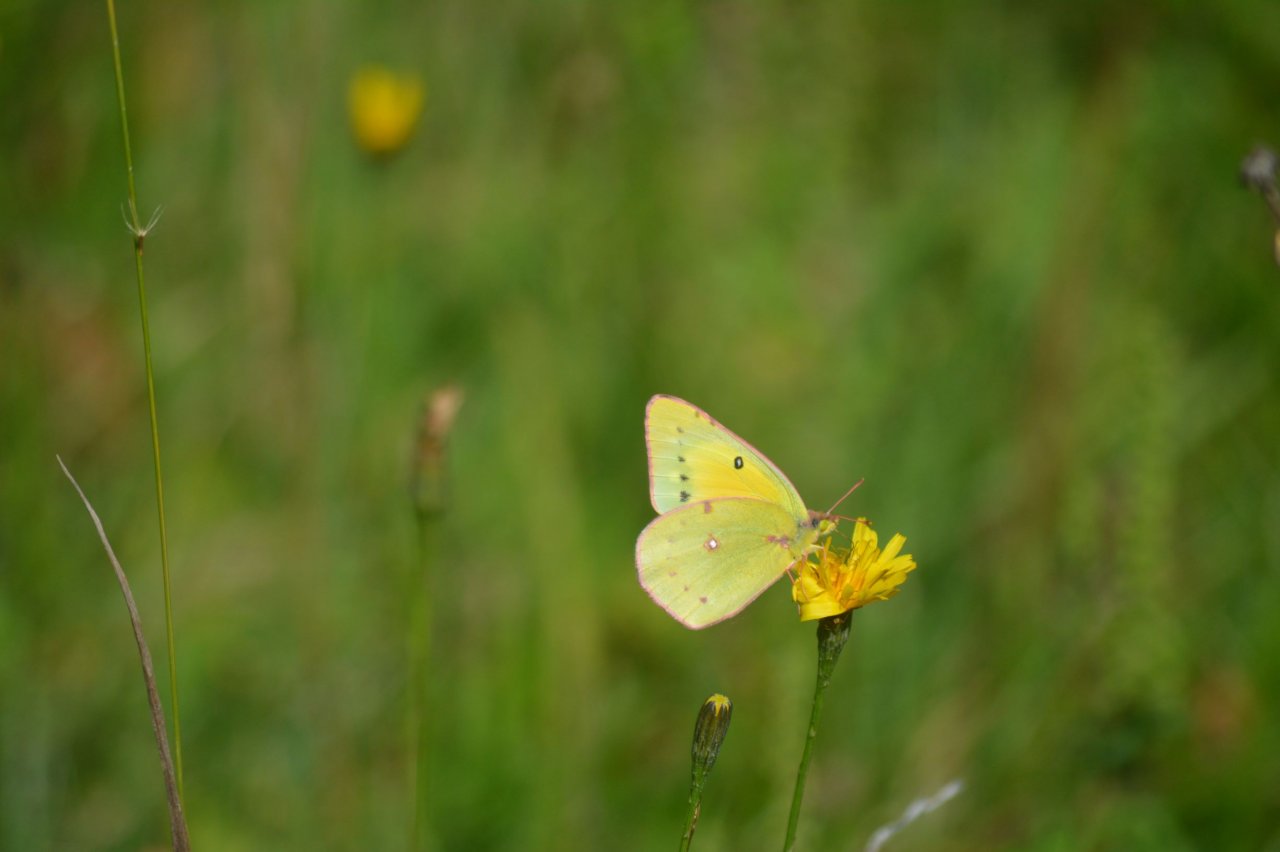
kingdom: Animalia
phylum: Arthropoda
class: Insecta
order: Lepidoptera
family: Pieridae
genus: Colias
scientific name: Colias eurytheme
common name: Orange Sulphur
